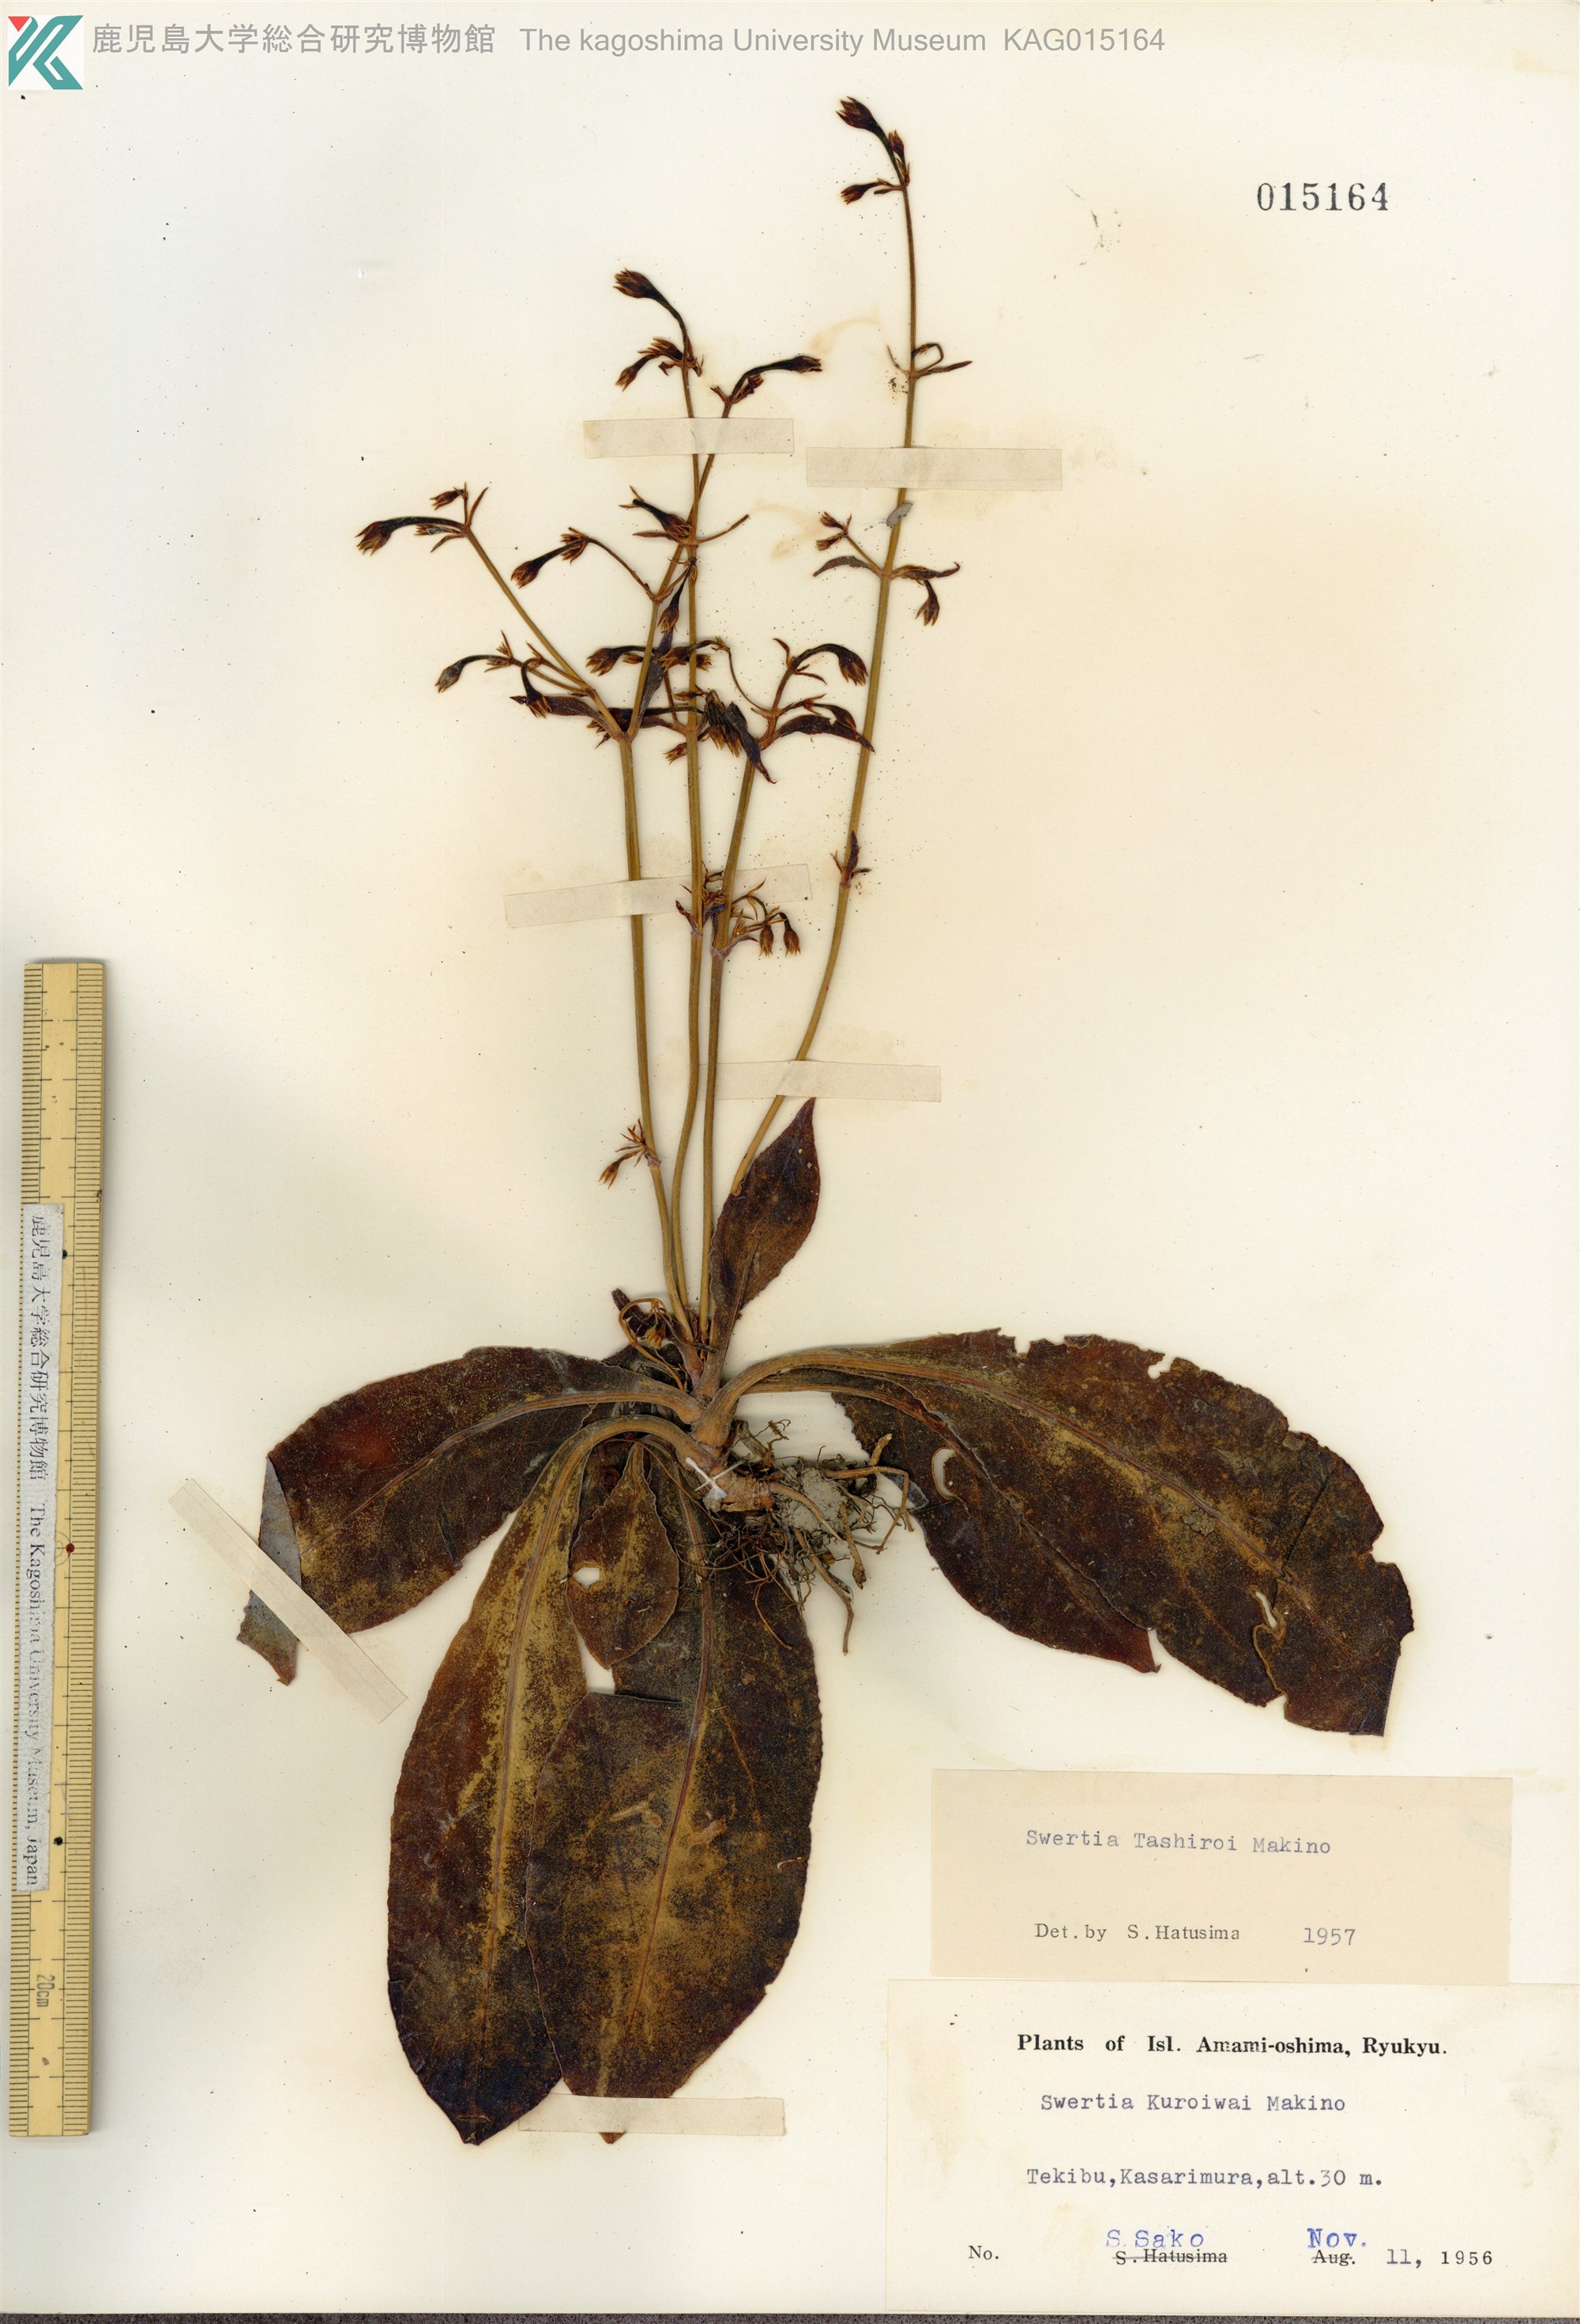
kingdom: Plantae
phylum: Tracheophyta
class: Magnoliopsida
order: Gentianales
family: Gentianaceae
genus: Swertia
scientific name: Swertia tashiroi
